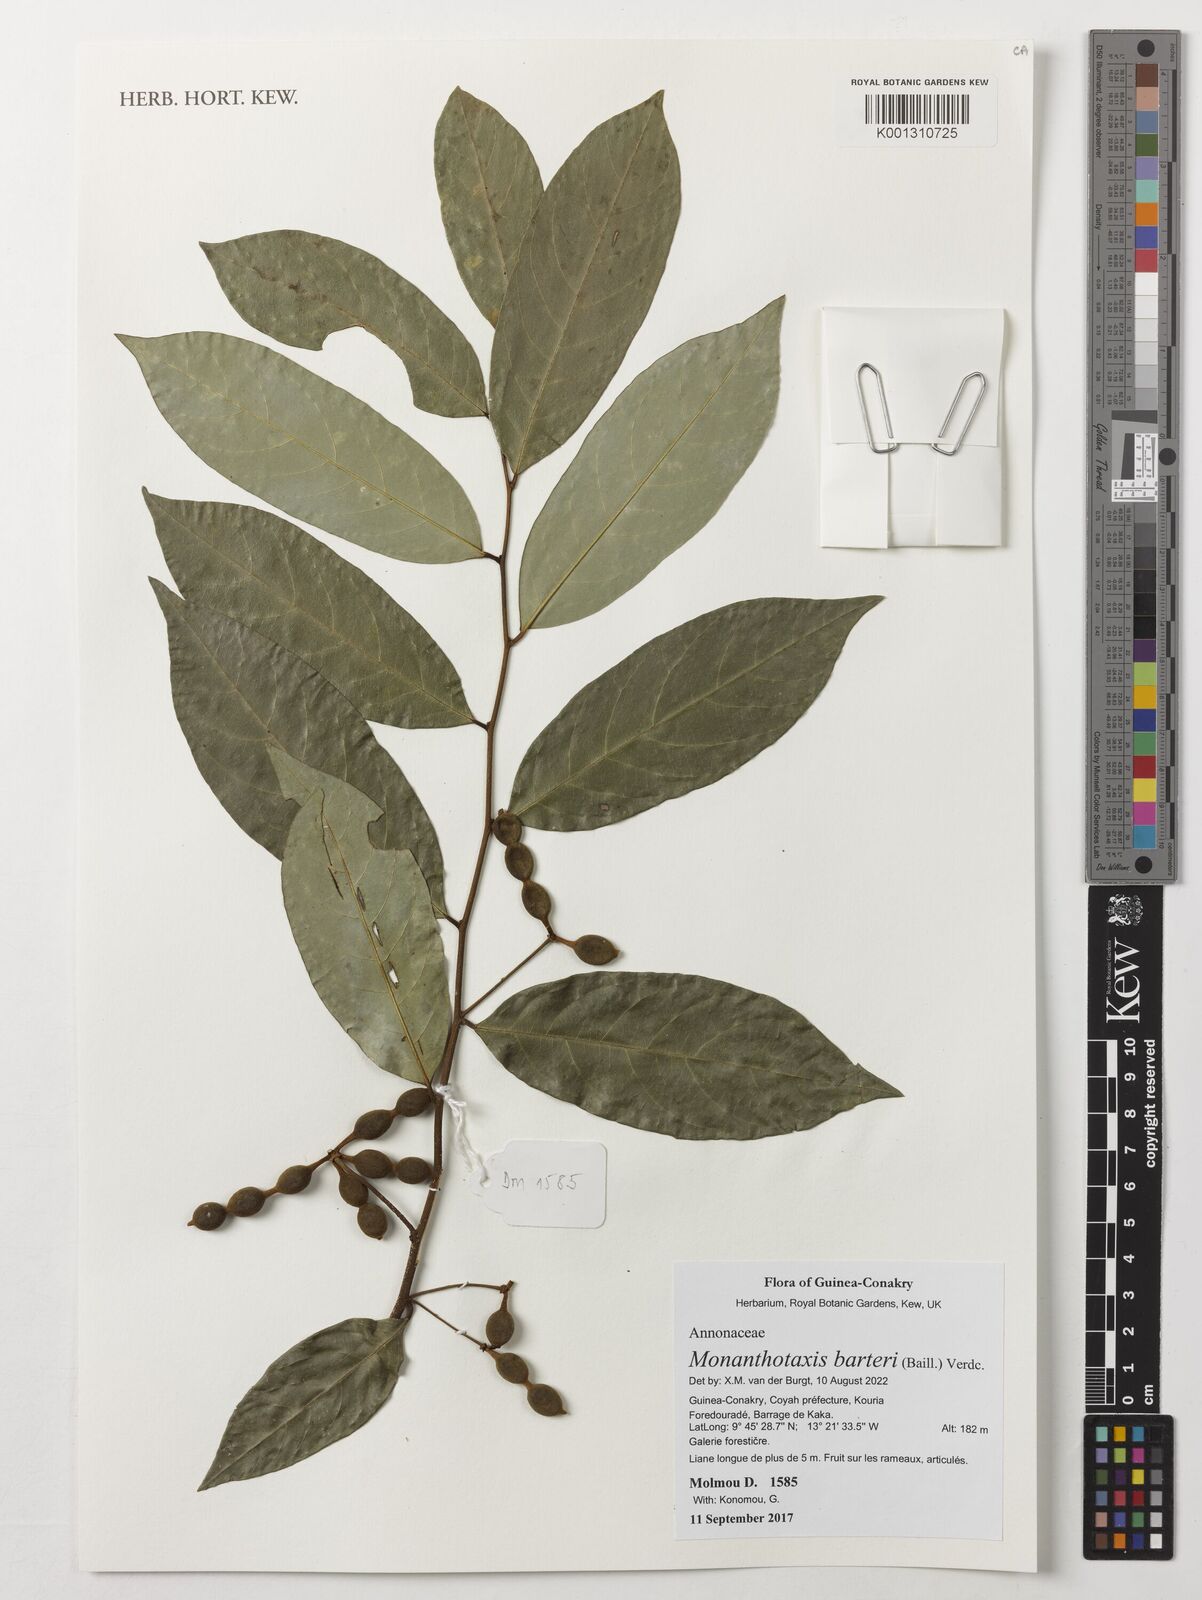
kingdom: Plantae
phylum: Tracheophyta
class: Magnoliopsida
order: Magnoliales
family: Annonaceae
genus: Monanthotaxis
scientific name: Monanthotaxis barteri
